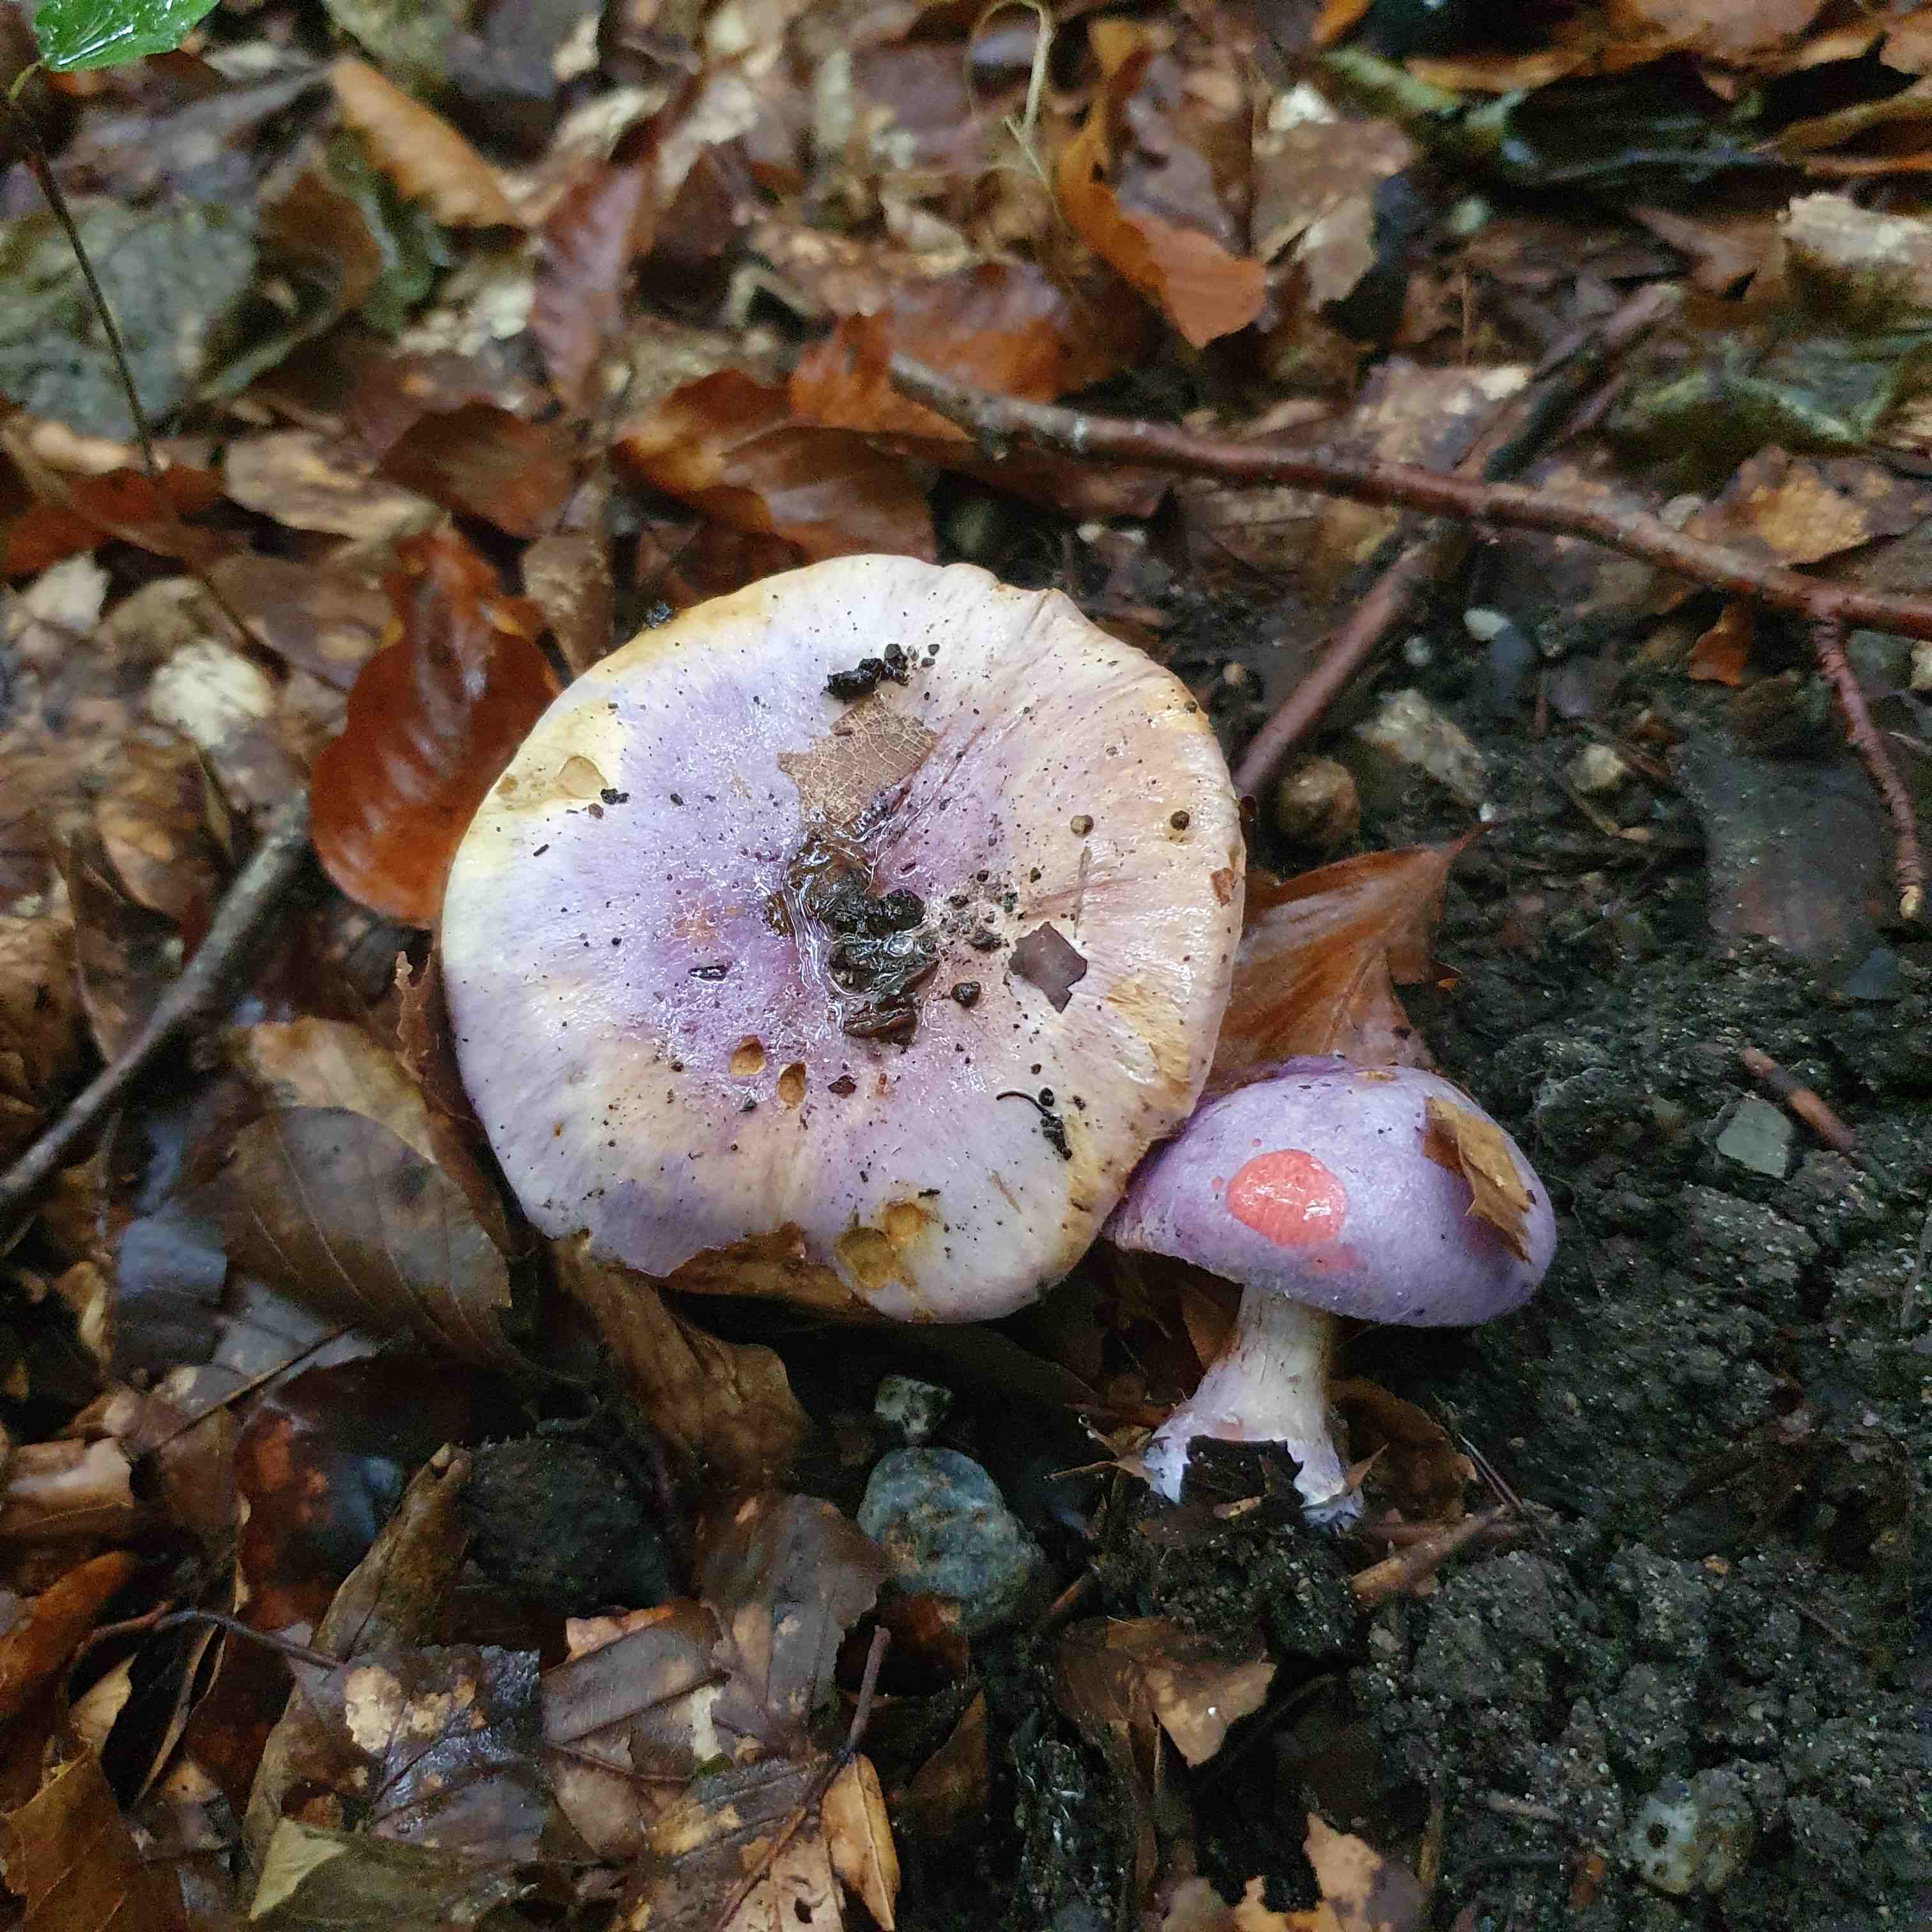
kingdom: Fungi
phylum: Basidiomycota
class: Agaricomycetes
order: Agaricales
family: Cortinariaceae
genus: Calonarius
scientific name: Calonarius sodagnitus
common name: violblå slørhat
